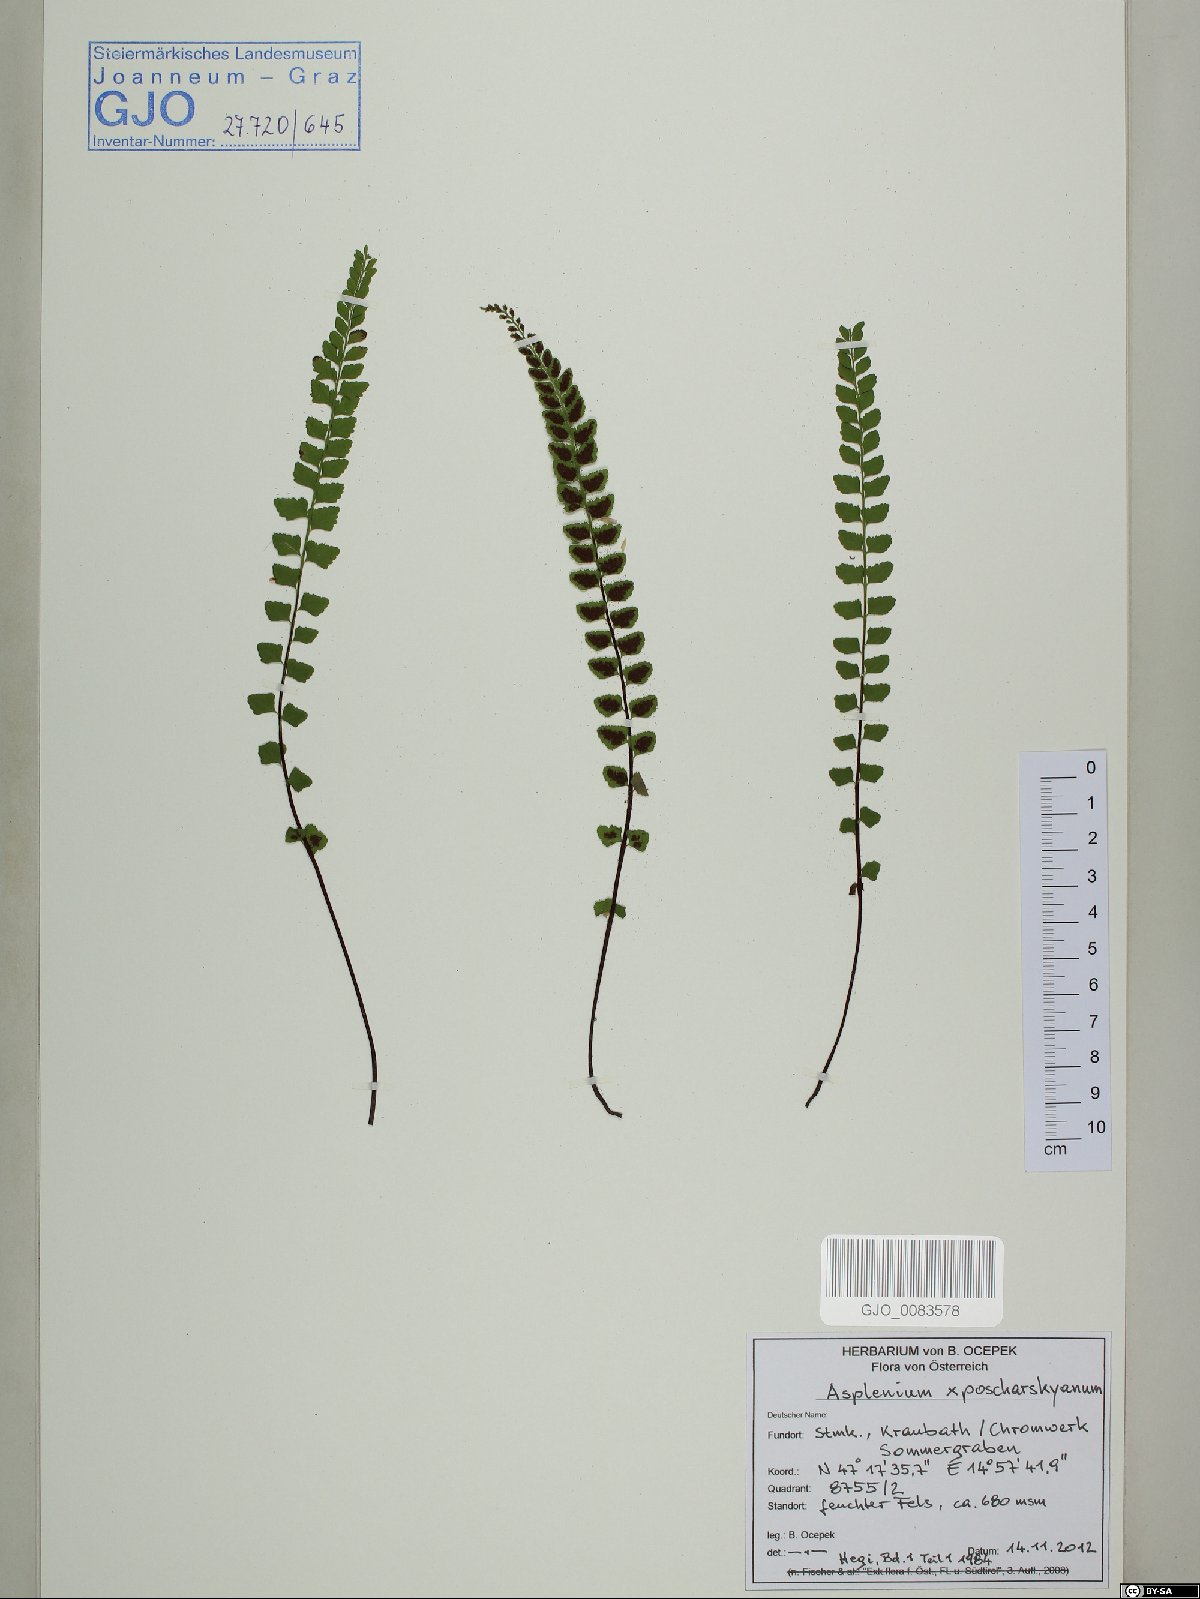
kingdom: Plantae
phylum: Tracheophyta
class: Polypodiopsida
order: Polypodiales
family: Aspleniaceae
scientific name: Aspleniaceae
